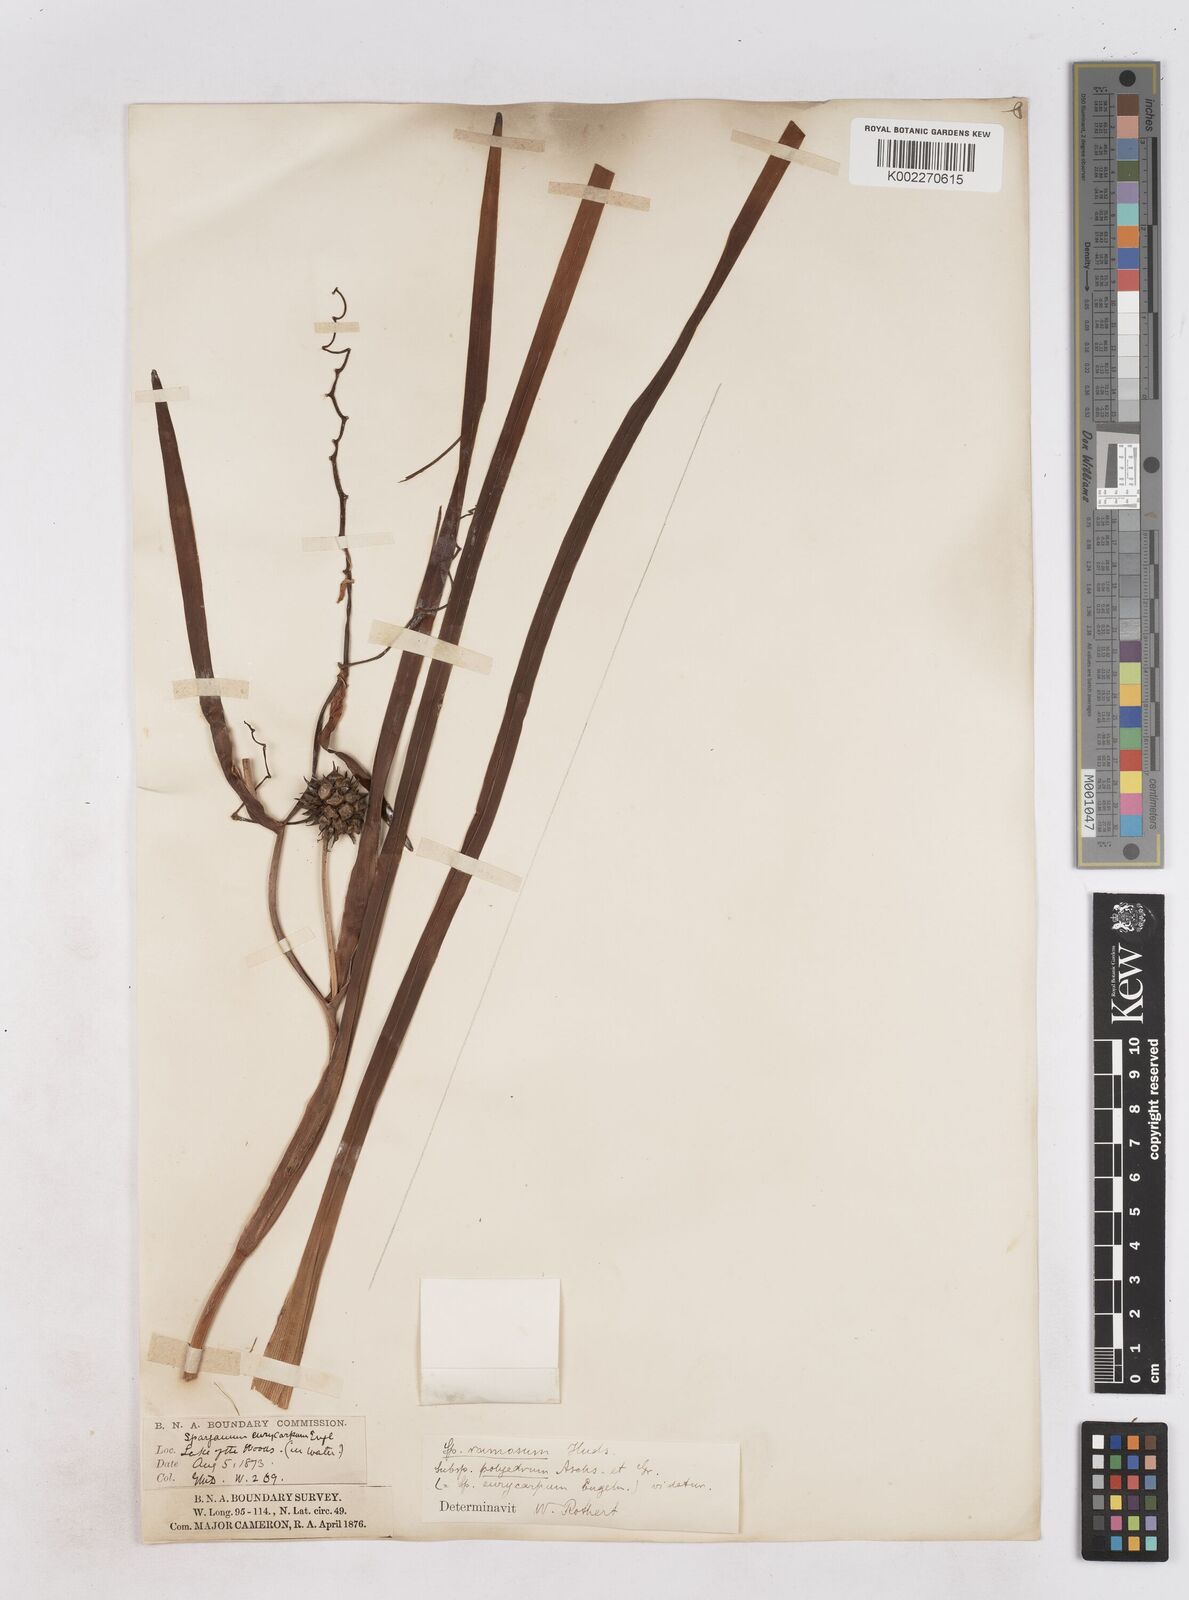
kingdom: Plantae
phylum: Tracheophyta
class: Liliopsida
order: Poales
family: Typhaceae
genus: Sparganium
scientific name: Sparganium eurycarpum
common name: Broad-fruited burreed
